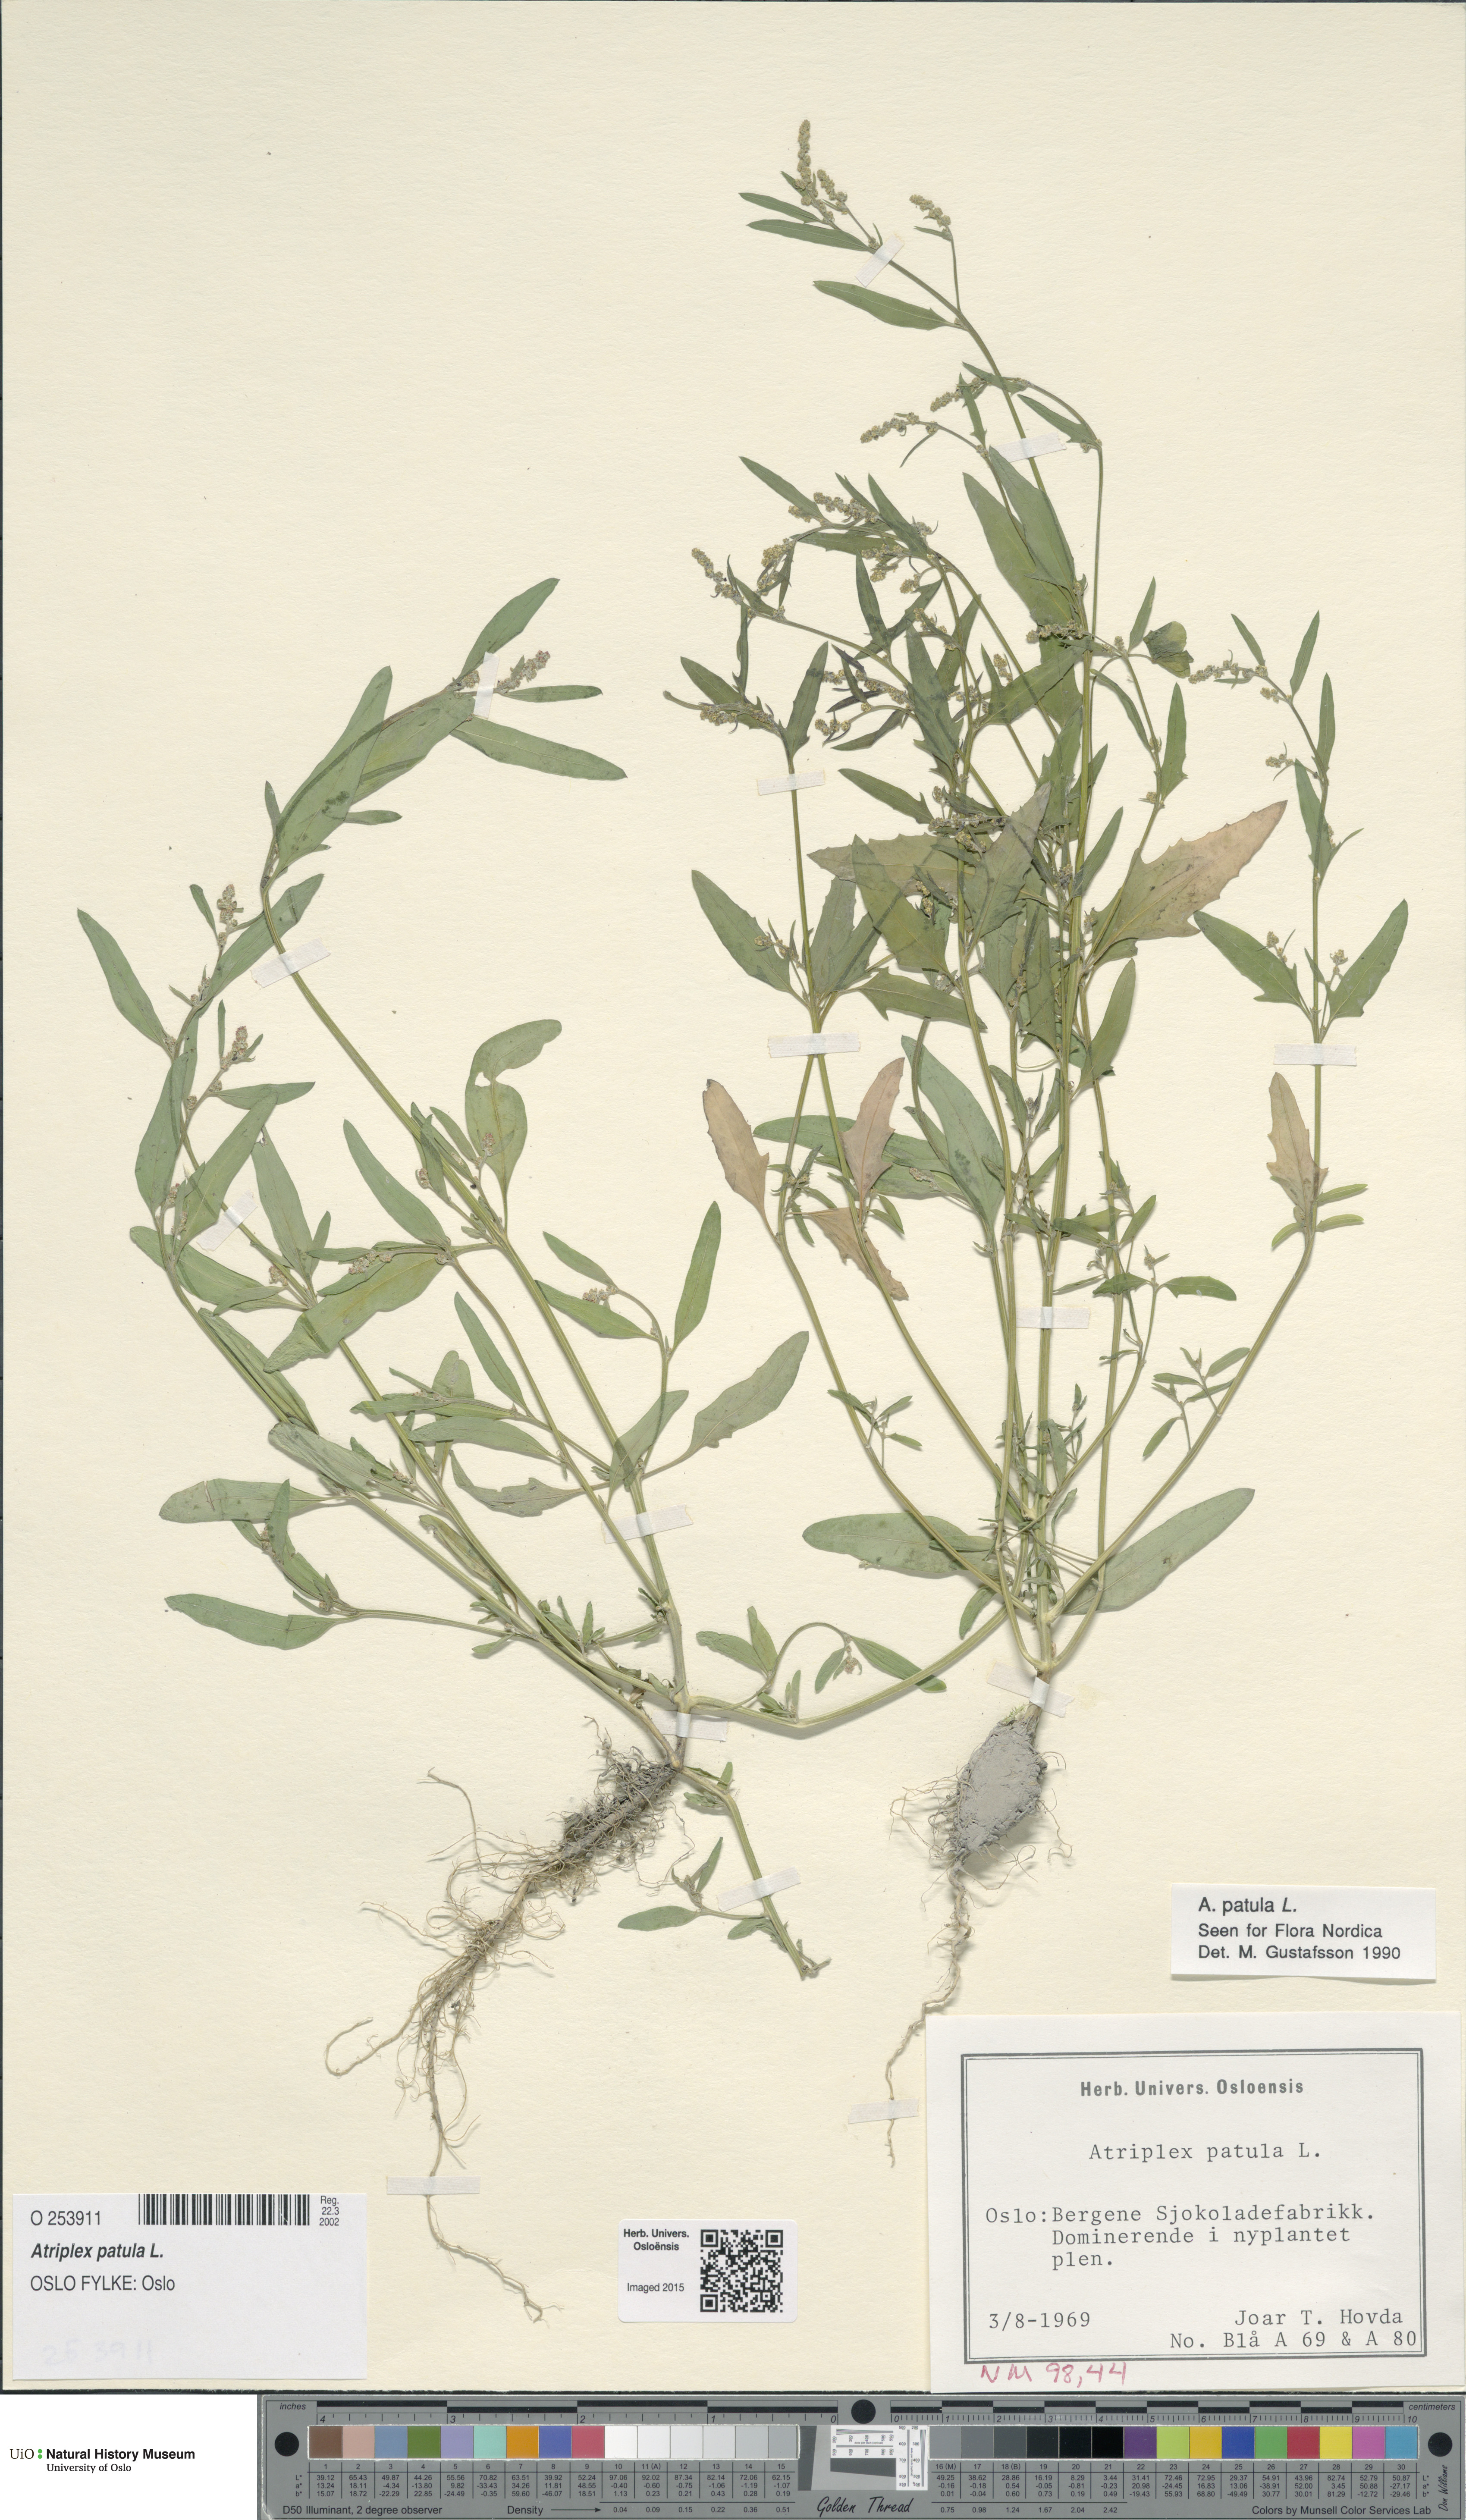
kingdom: Plantae
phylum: Tracheophyta
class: Magnoliopsida
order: Caryophyllales
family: Amaranthaceae
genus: Atriplex
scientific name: Atriplex patula
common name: Common orache
